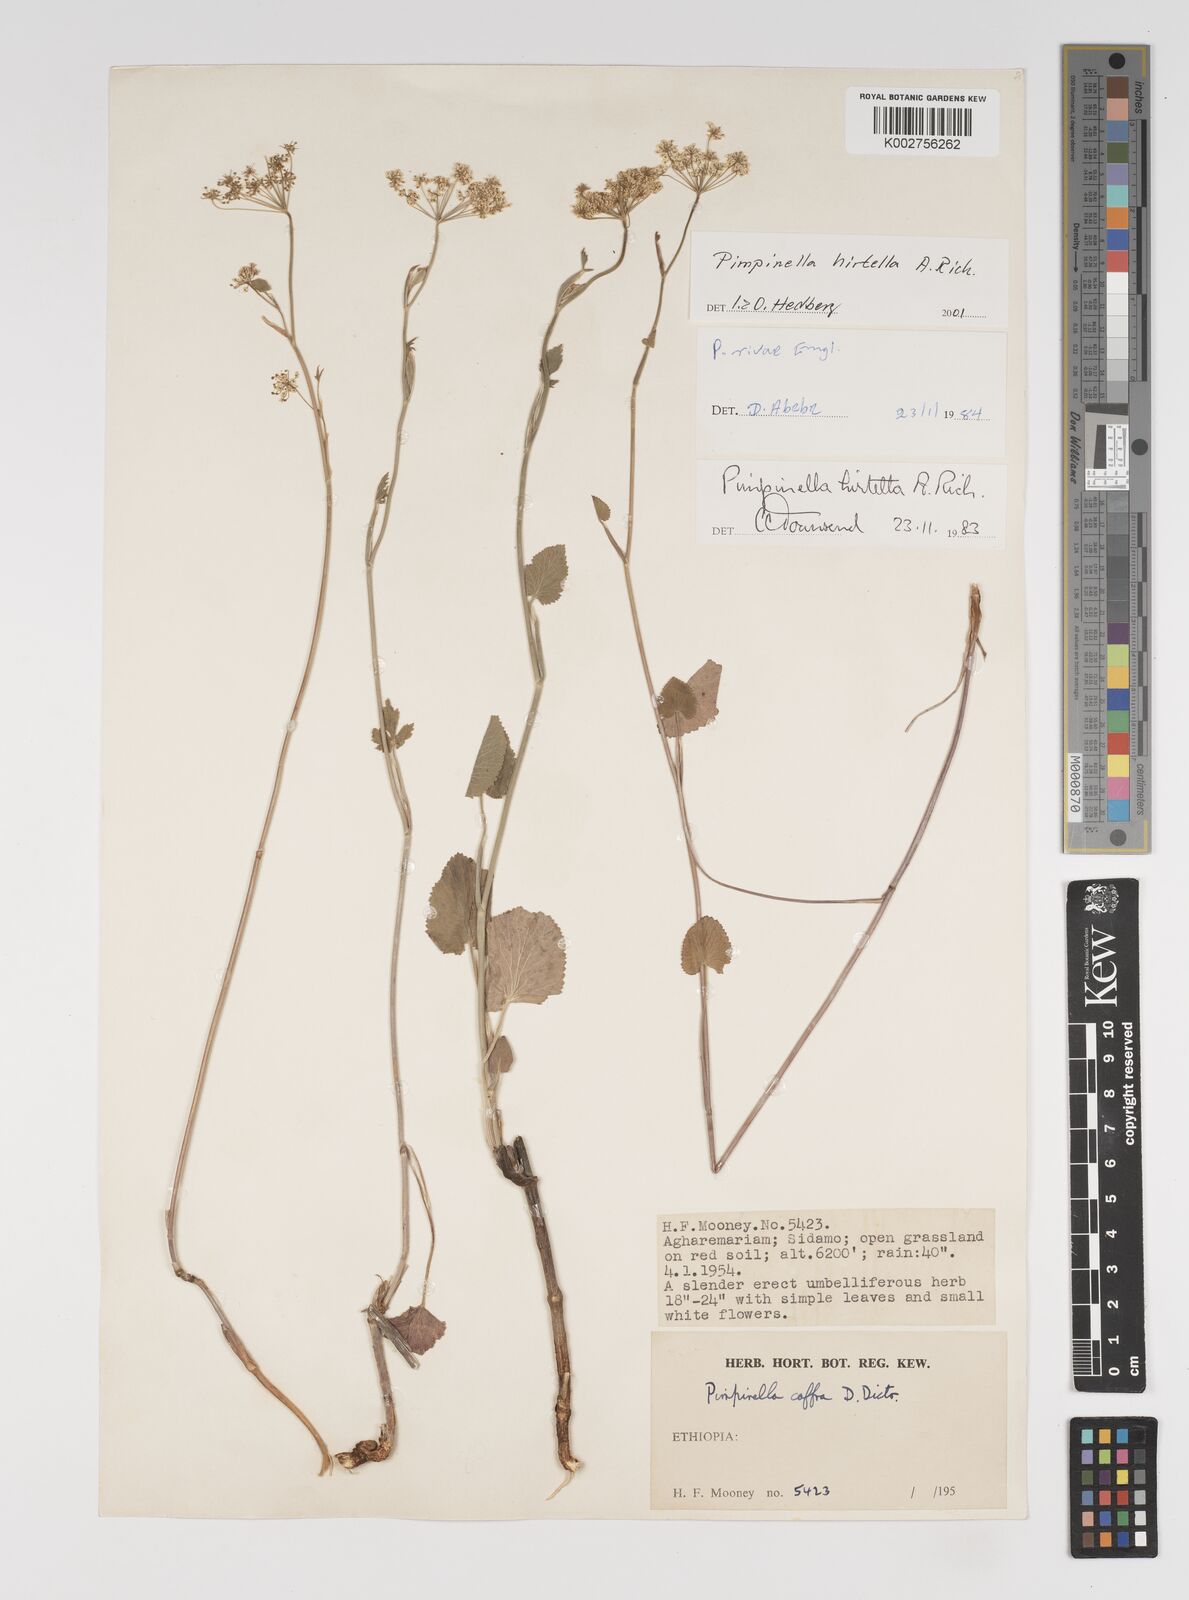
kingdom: Plantae
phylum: Tracheophyta
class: Magnoliopsida
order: Apiales
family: Apiaceae
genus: Pimpinella
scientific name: Pimpinella hirtella
